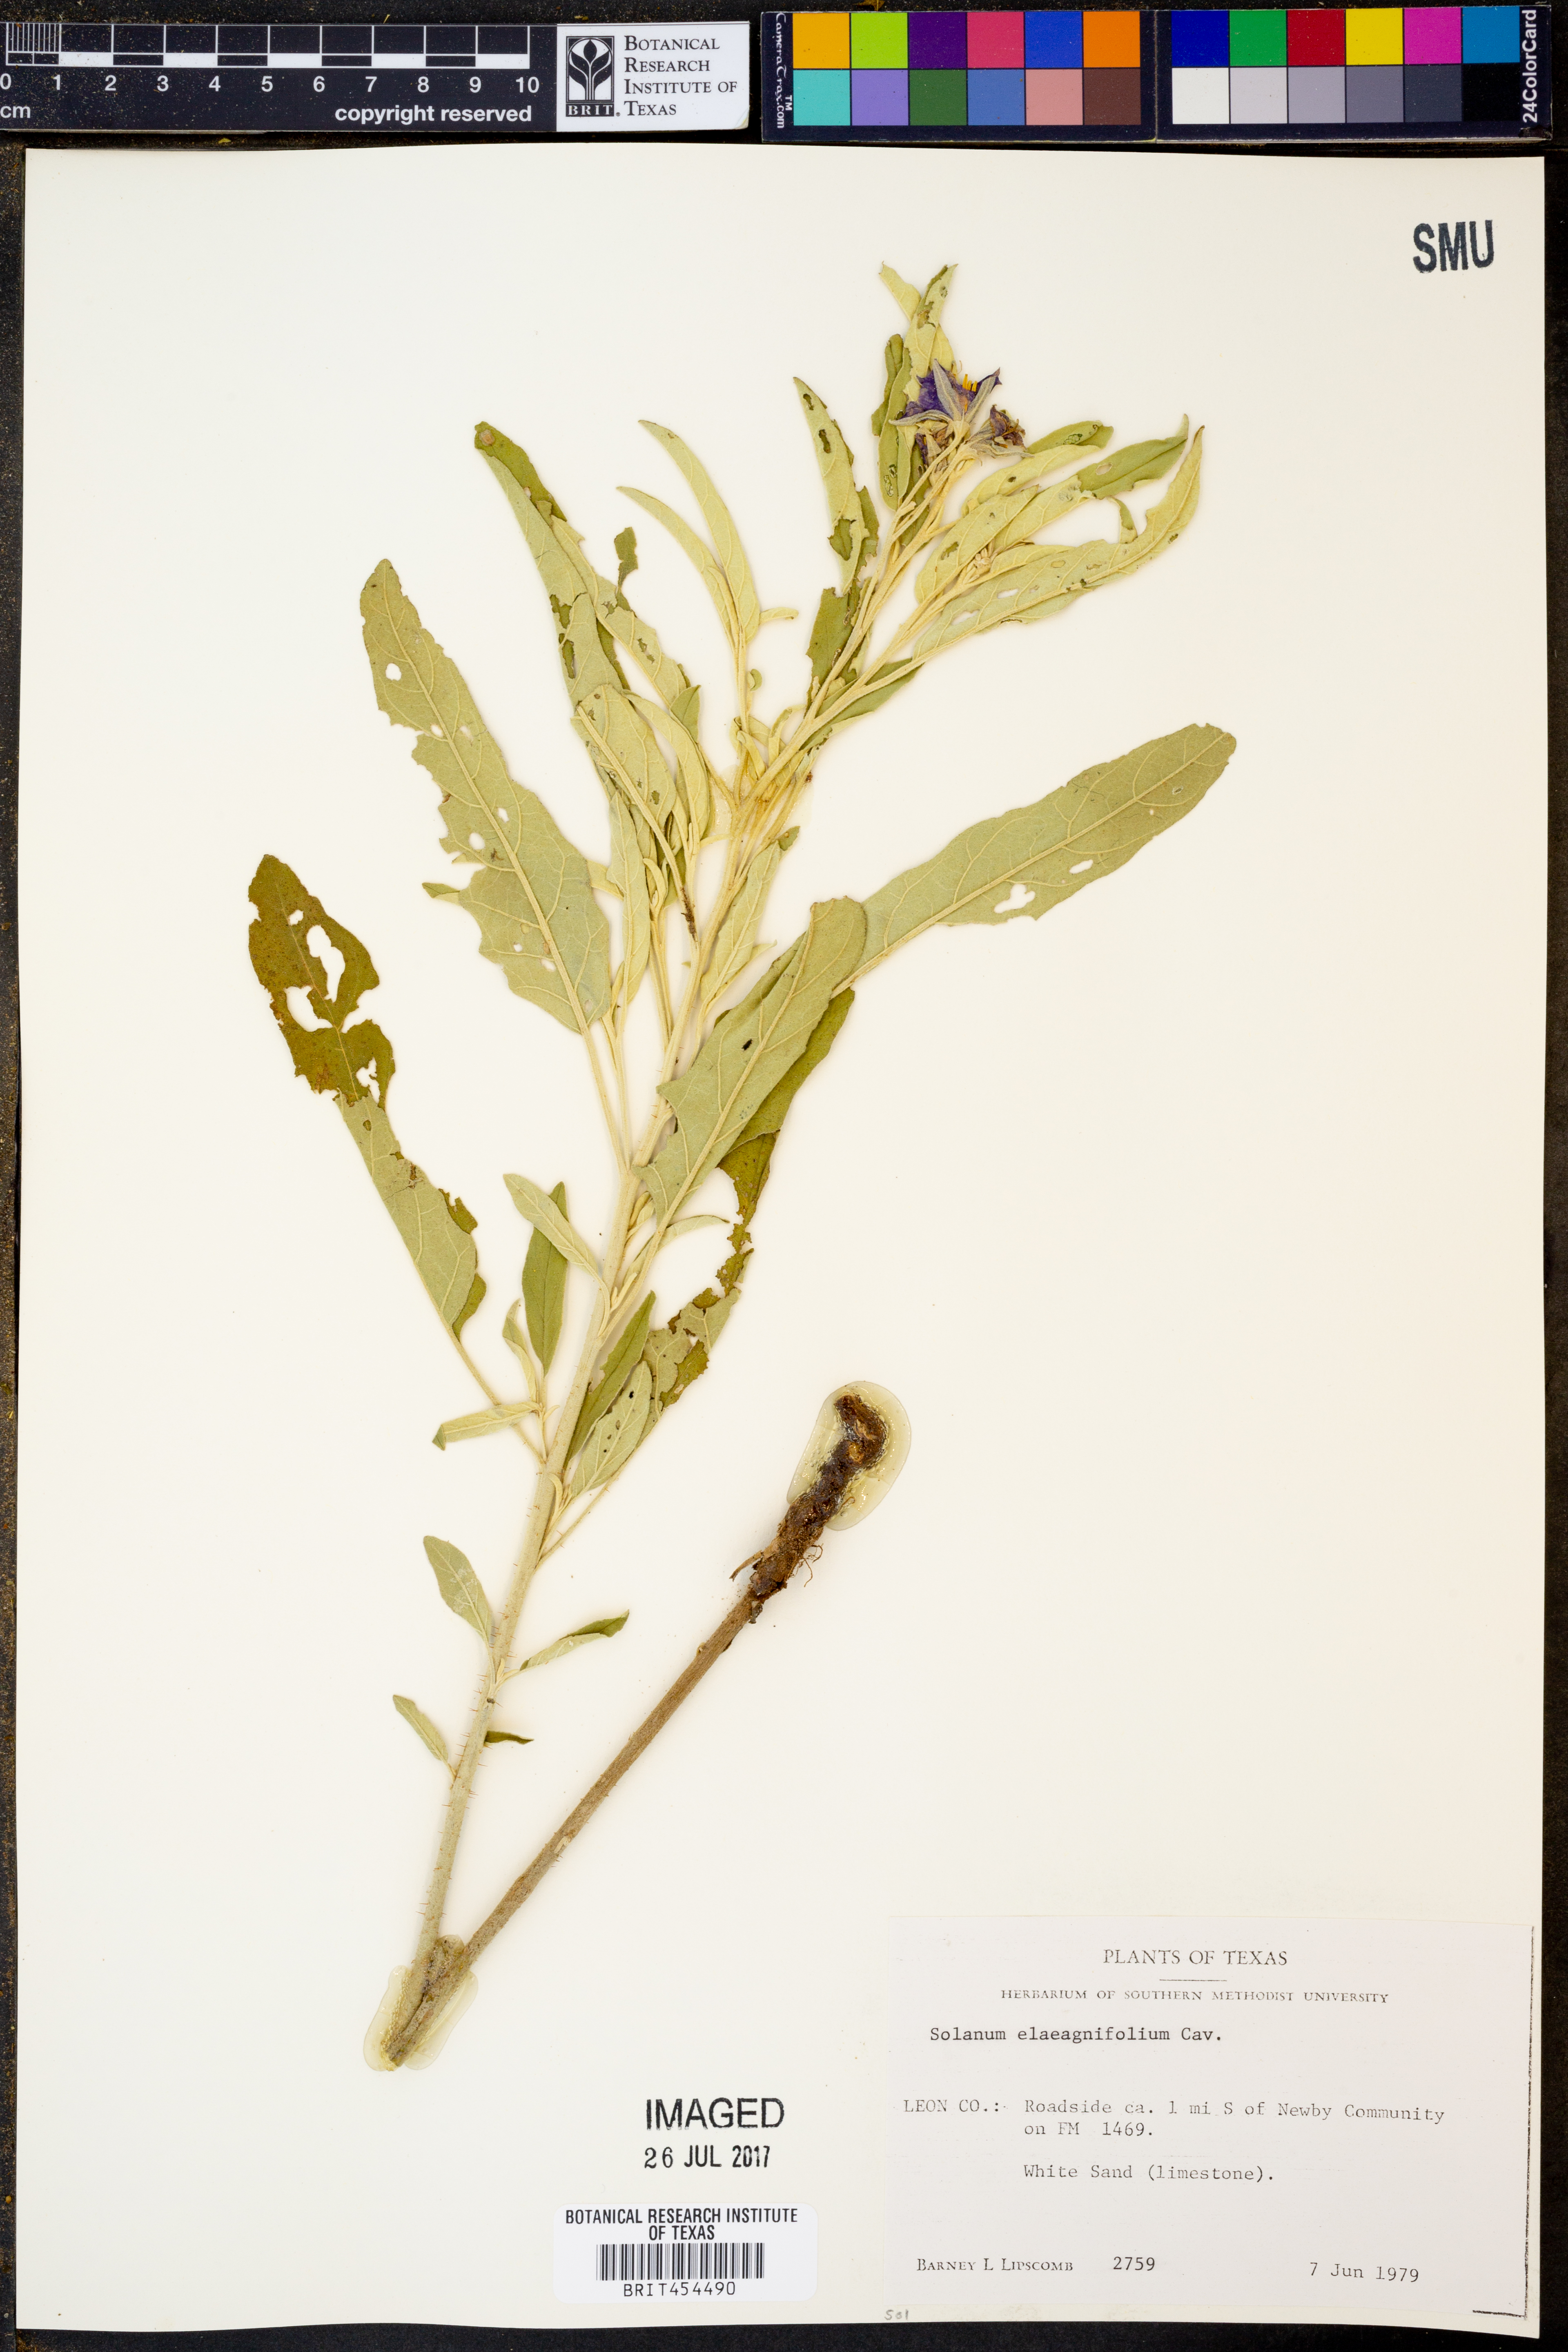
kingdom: Plantae
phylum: Tracheophyta
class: Magnoliopsida
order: Solanales
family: Solanaceae
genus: Solanum
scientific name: Solanum elaeagnifolium
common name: Silverleaf nightshade
